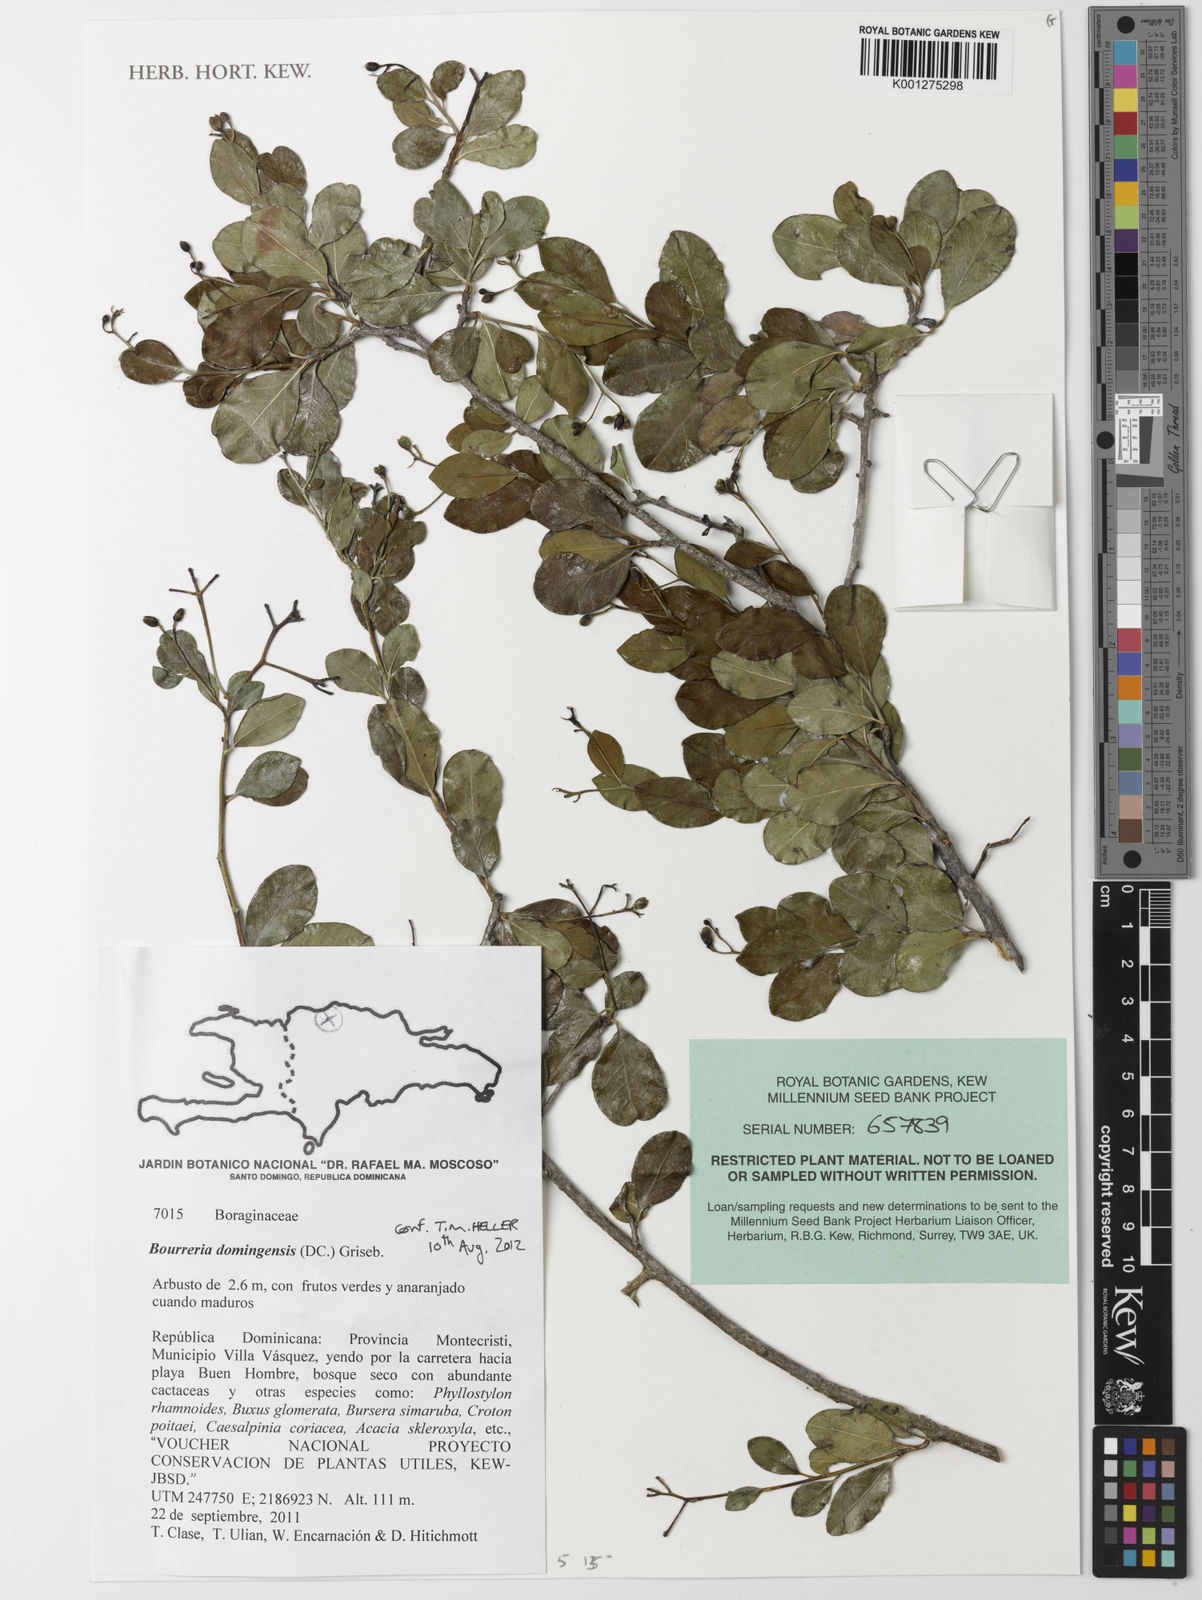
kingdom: Plantae
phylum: Tracheophyta
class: Magnoliopsida
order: Boraginales
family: Ehretiaceae
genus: Bourreria
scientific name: Bourreria domingensis
